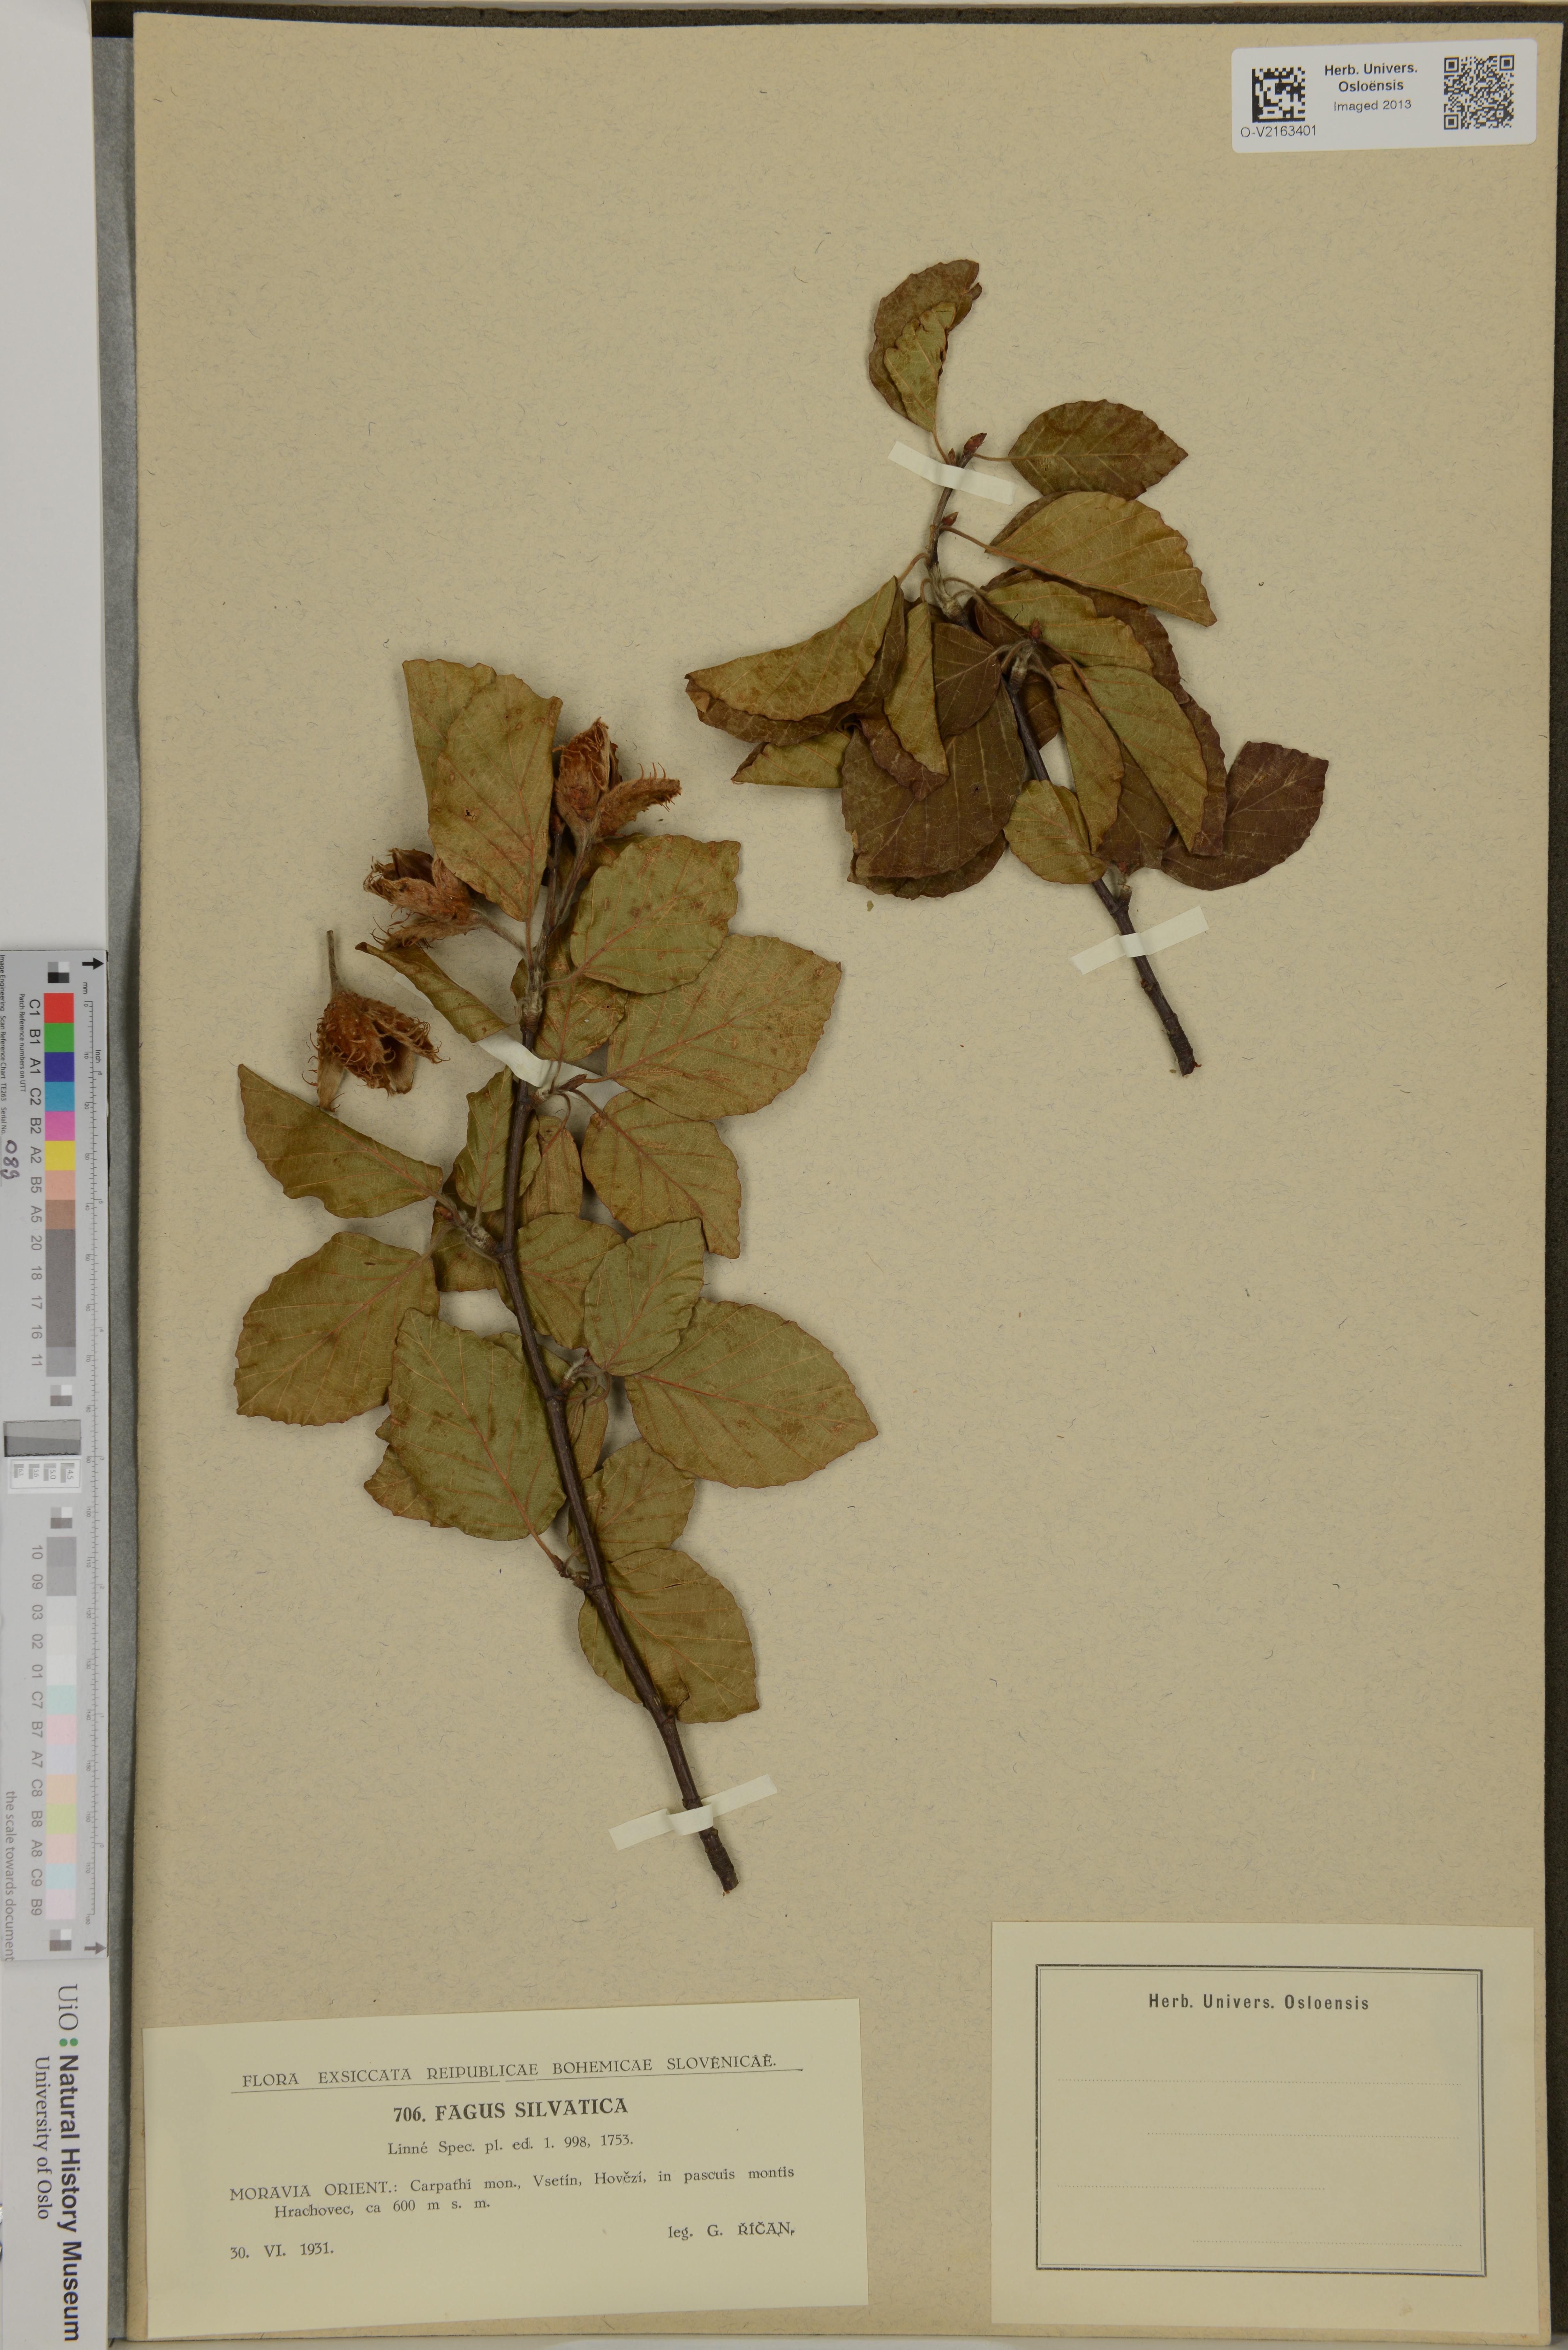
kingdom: Plantae
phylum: Tracheophyta
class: Magnoliopsida
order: Fagales
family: Fagaceae
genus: Fagus
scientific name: Fagus sylvatica
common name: Beech
